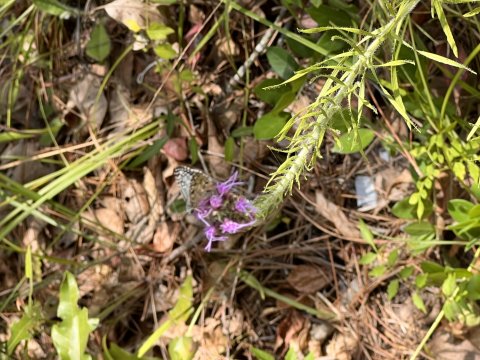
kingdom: Animalia
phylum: Arthropoda
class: Insecta
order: Lepidoptera
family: Hesperiidae
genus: Pyrgus
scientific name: Pyrgus oileus
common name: Tropical Checkered-Skipper
